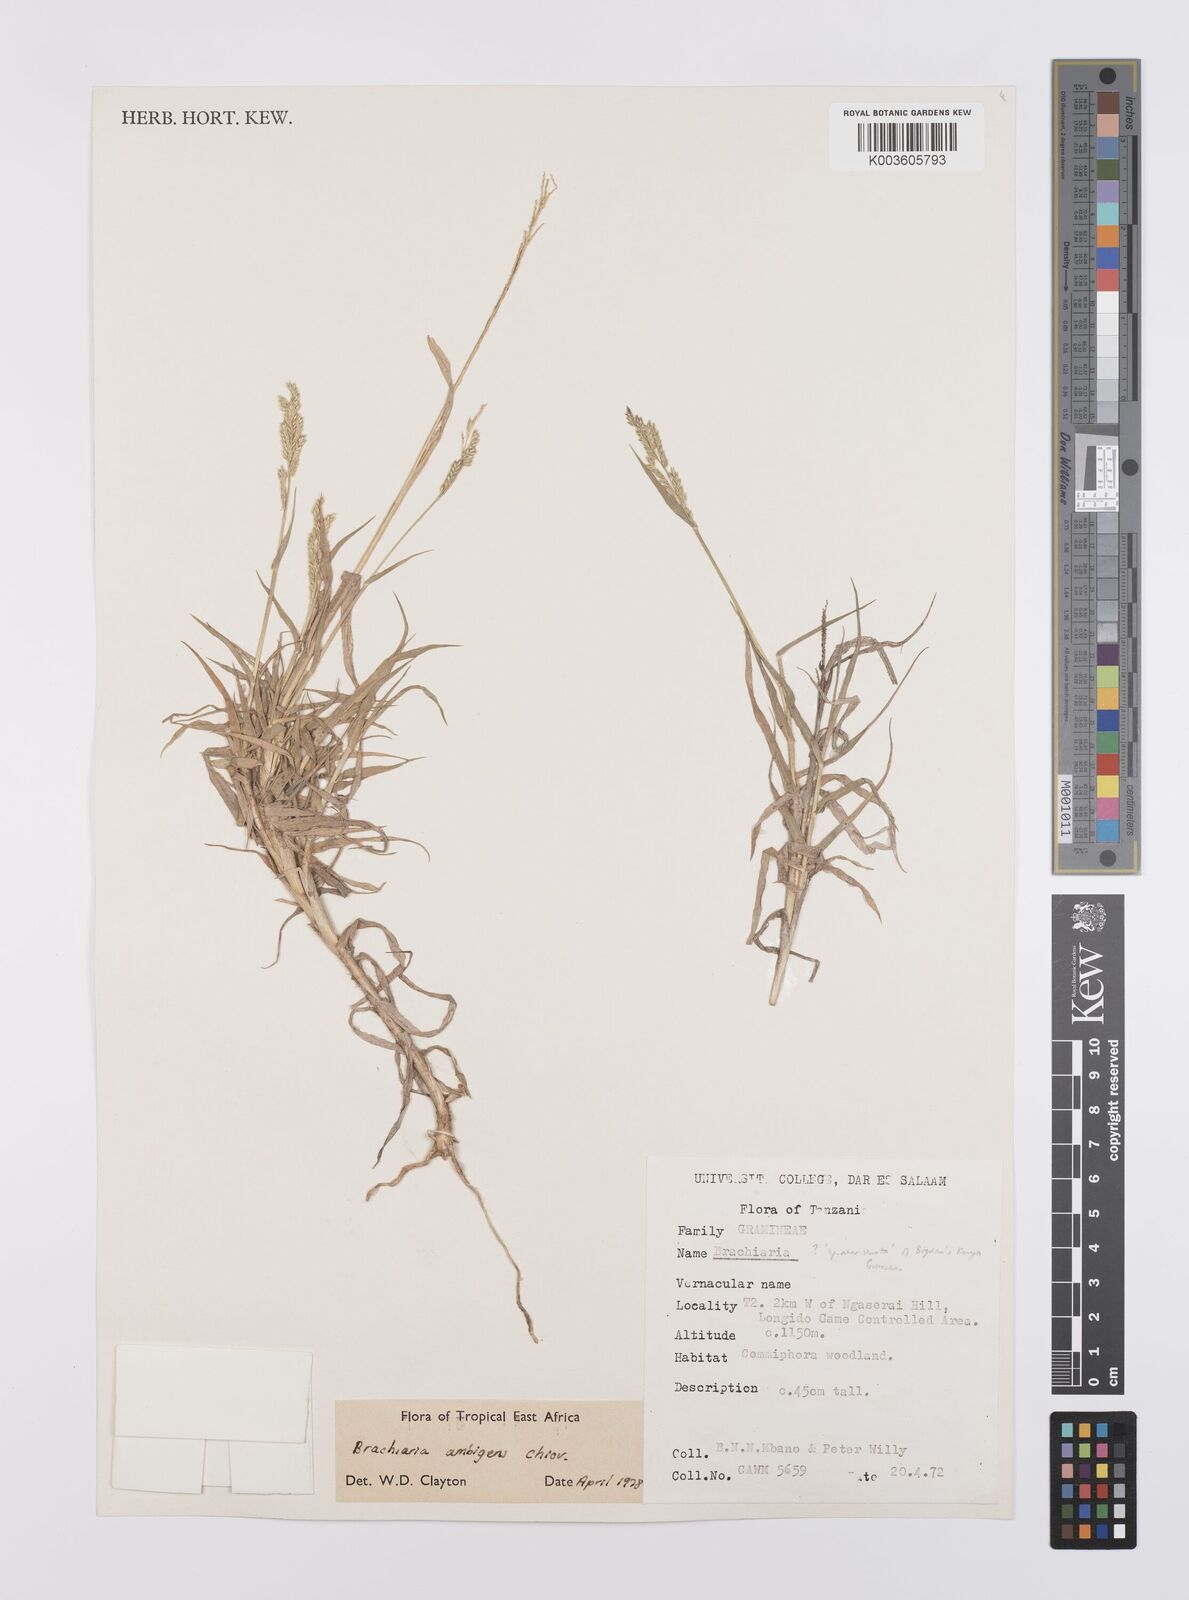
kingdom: Plantae
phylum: Tracheophyta
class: Liliopsida
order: Poales
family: Poaceae
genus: Urochloa
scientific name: Urochloa Brachiaria ambigens
